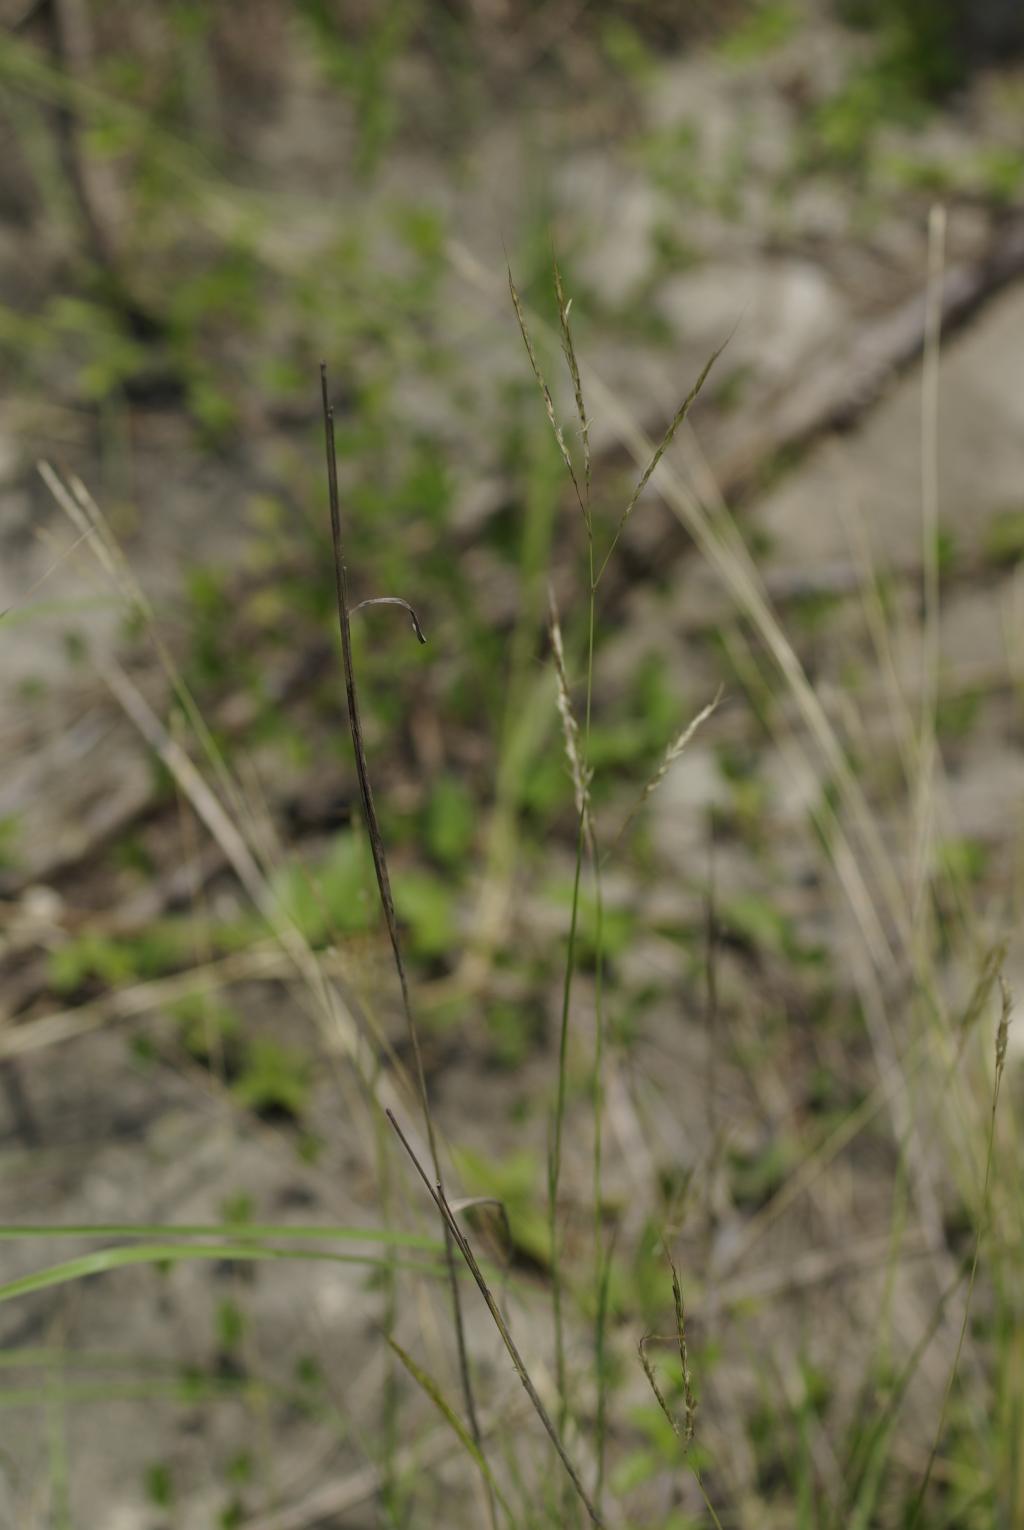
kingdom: Plantae
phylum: Tracheophyta
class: Liliopsida
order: Poales
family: Poaceae
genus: Bothriochloa
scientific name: Bothriochloa ischaemum
